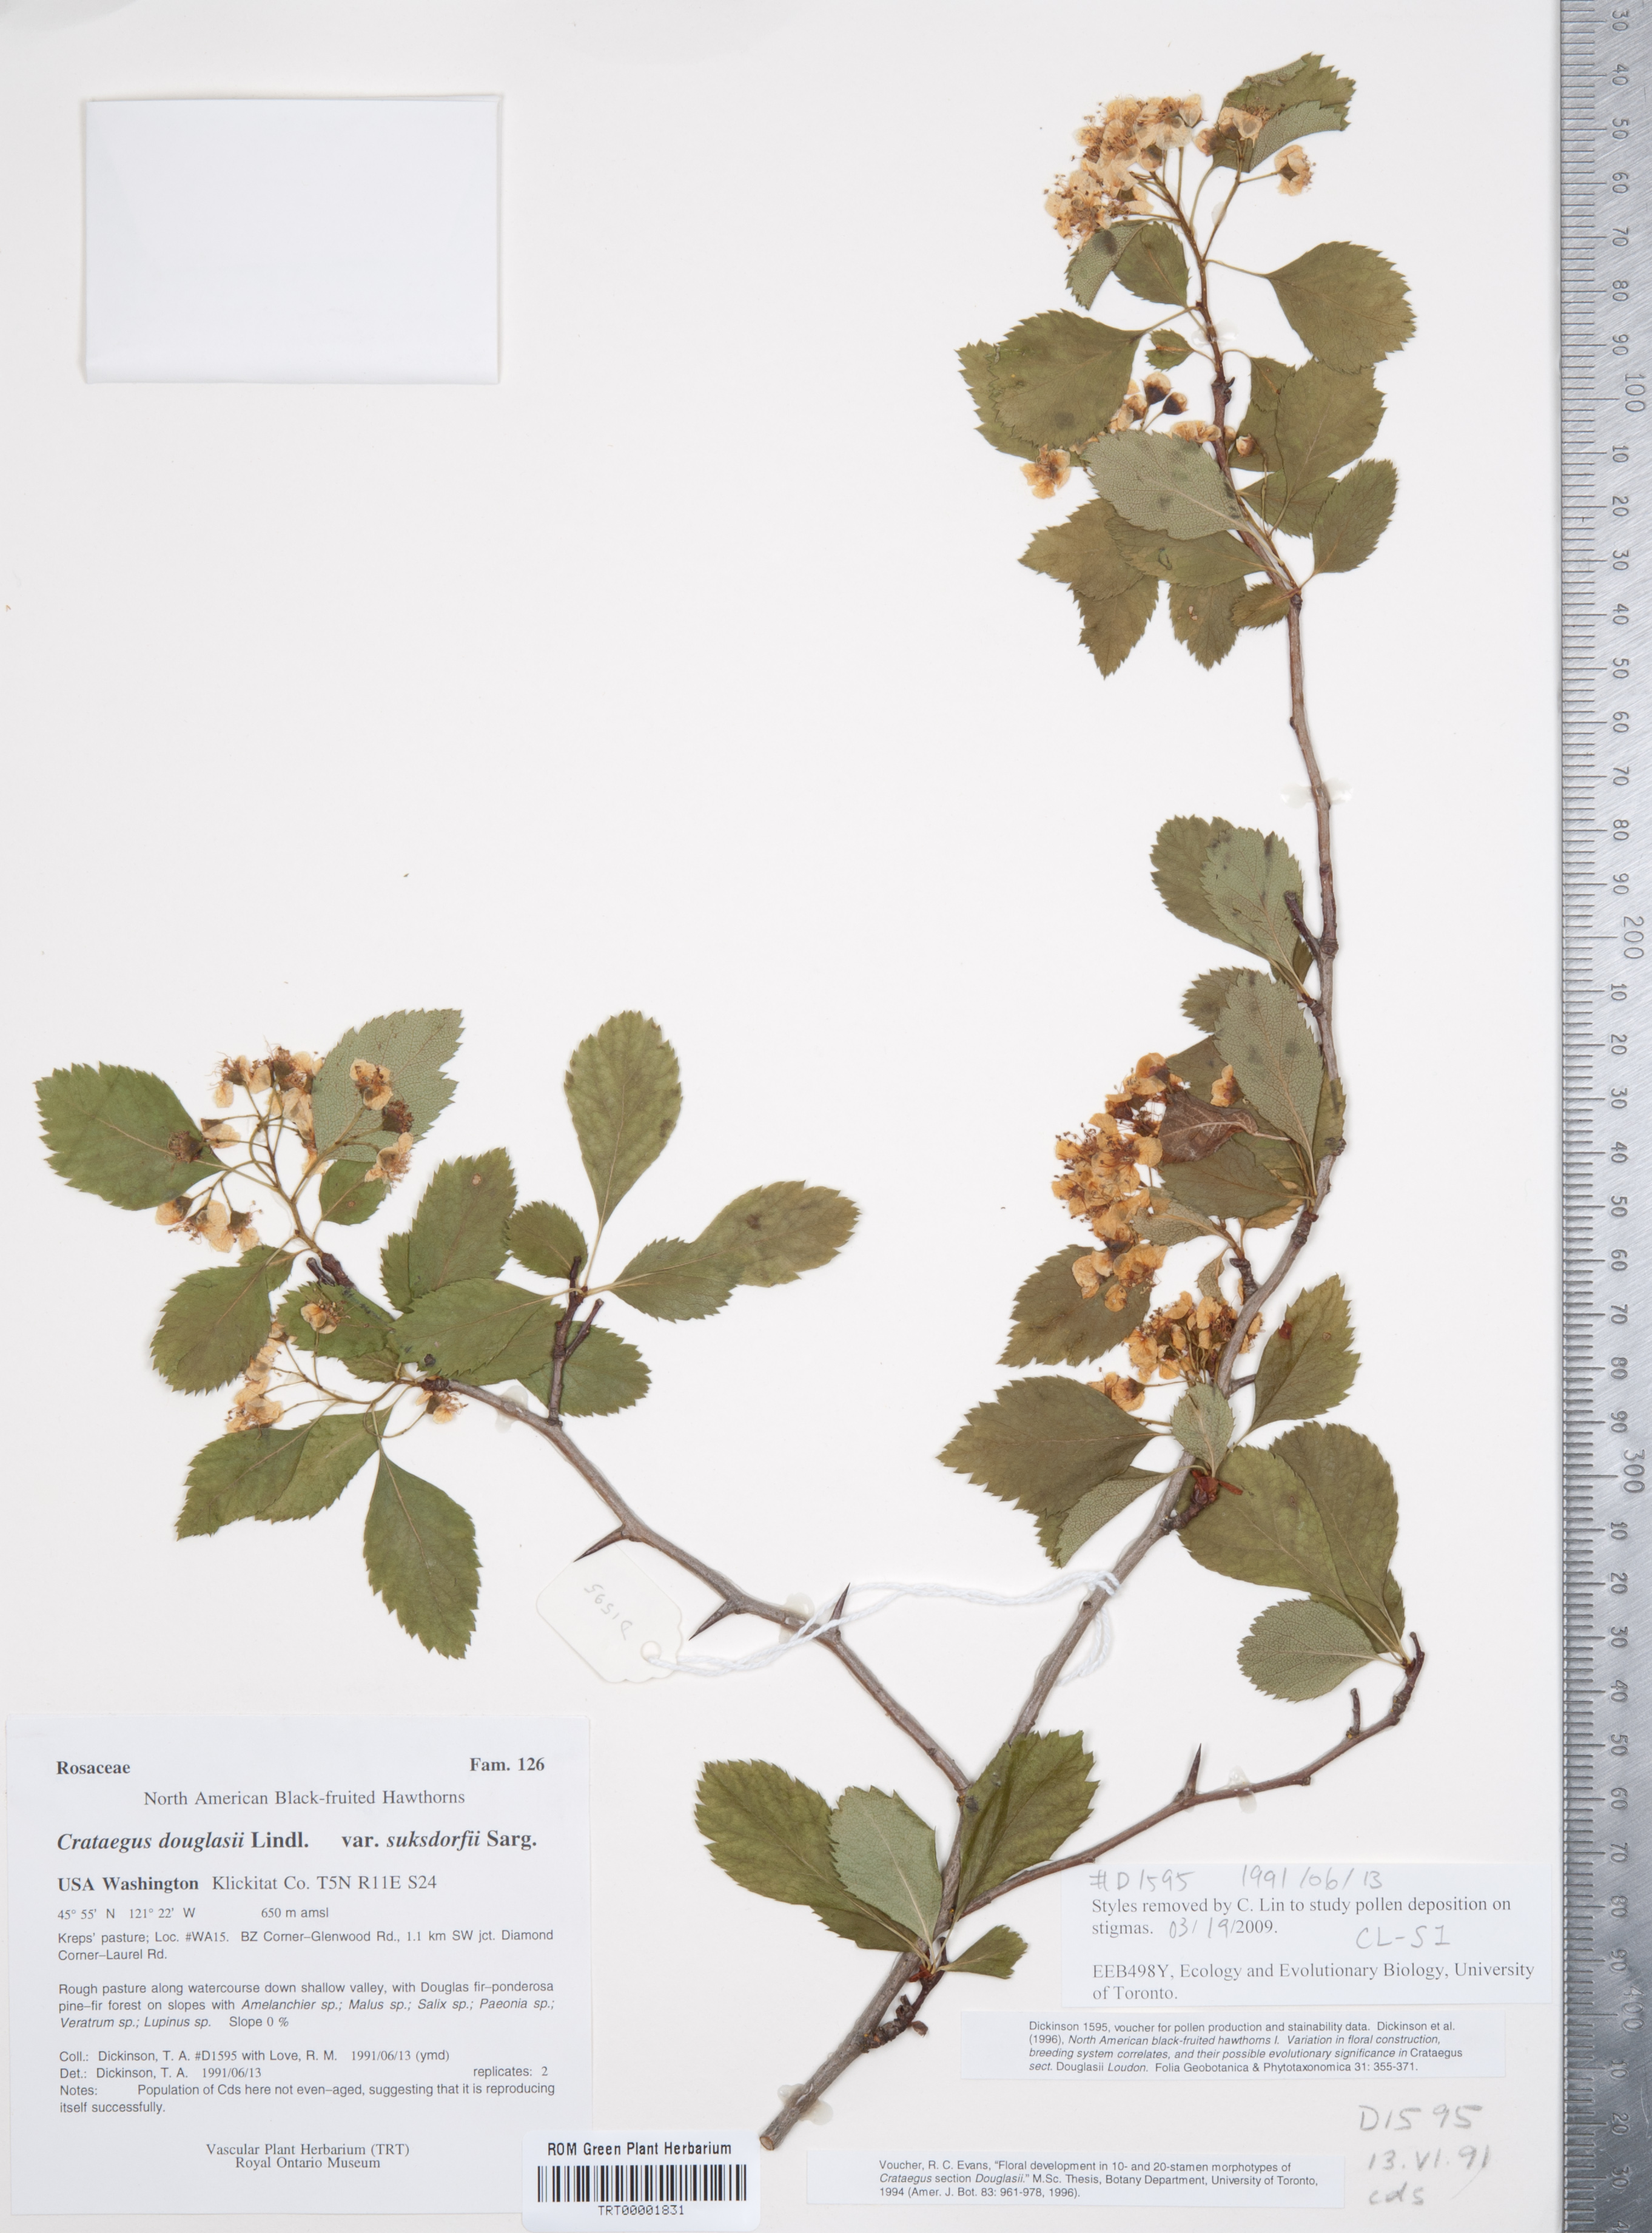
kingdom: Plantae
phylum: Tracheophyta
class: Magnoliopsida
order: Rosales
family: Rosaceae
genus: Crataegus
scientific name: Crataegus gaylussacia
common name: Huckleberry hawthorn
